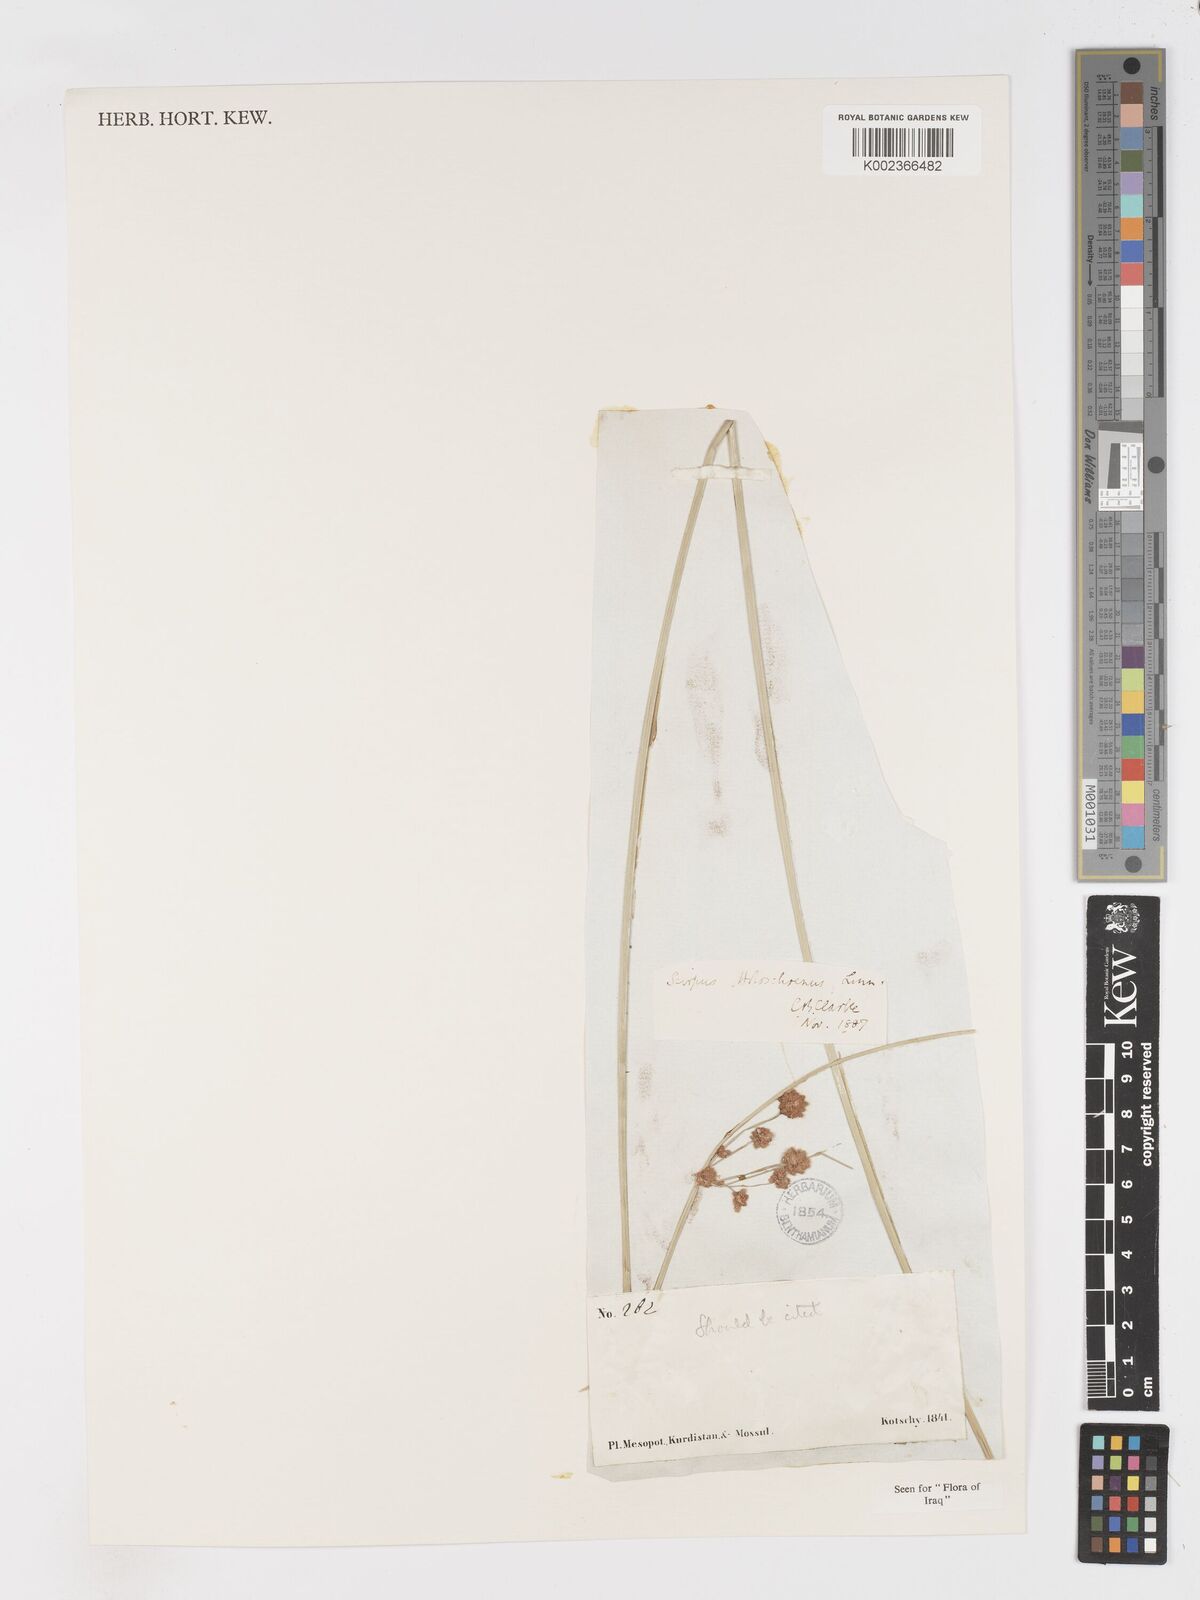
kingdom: Plantae
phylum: Tracheophyta
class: Liliopsida
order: Poales
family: Cyperaceae
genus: Scirpoides
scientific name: Scirpoides holoschoenus
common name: Round-headed club-rush
